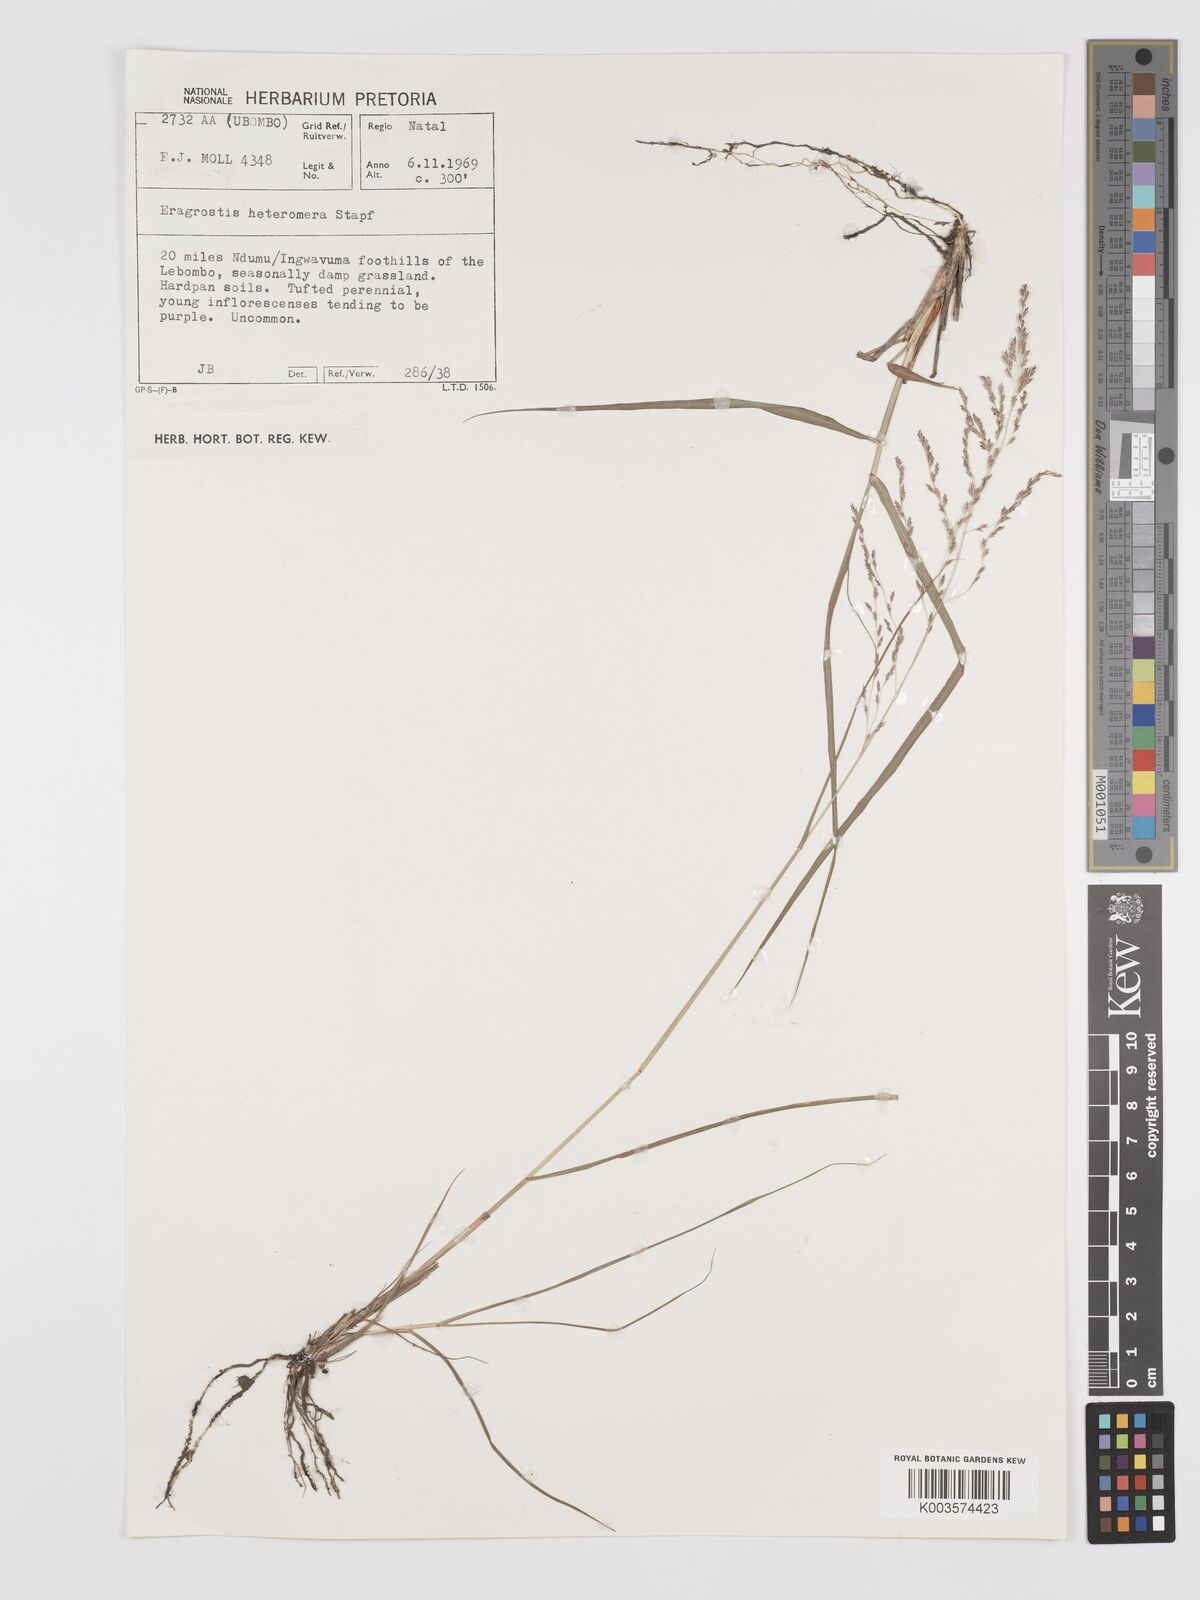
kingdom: Plantae
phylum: Tracheophyta
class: Liliopsida
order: Poales
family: Poaceae
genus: Eragrostis
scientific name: Eragrostis heteromera
